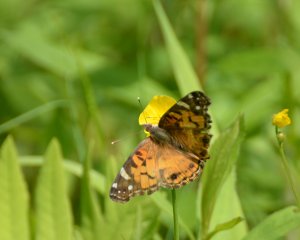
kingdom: Animalia
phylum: Arthropoda
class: Insecta
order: Lepidoptera
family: Nymphalidae
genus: Vanessa
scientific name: Vanessa virginiensis
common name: American Lady
